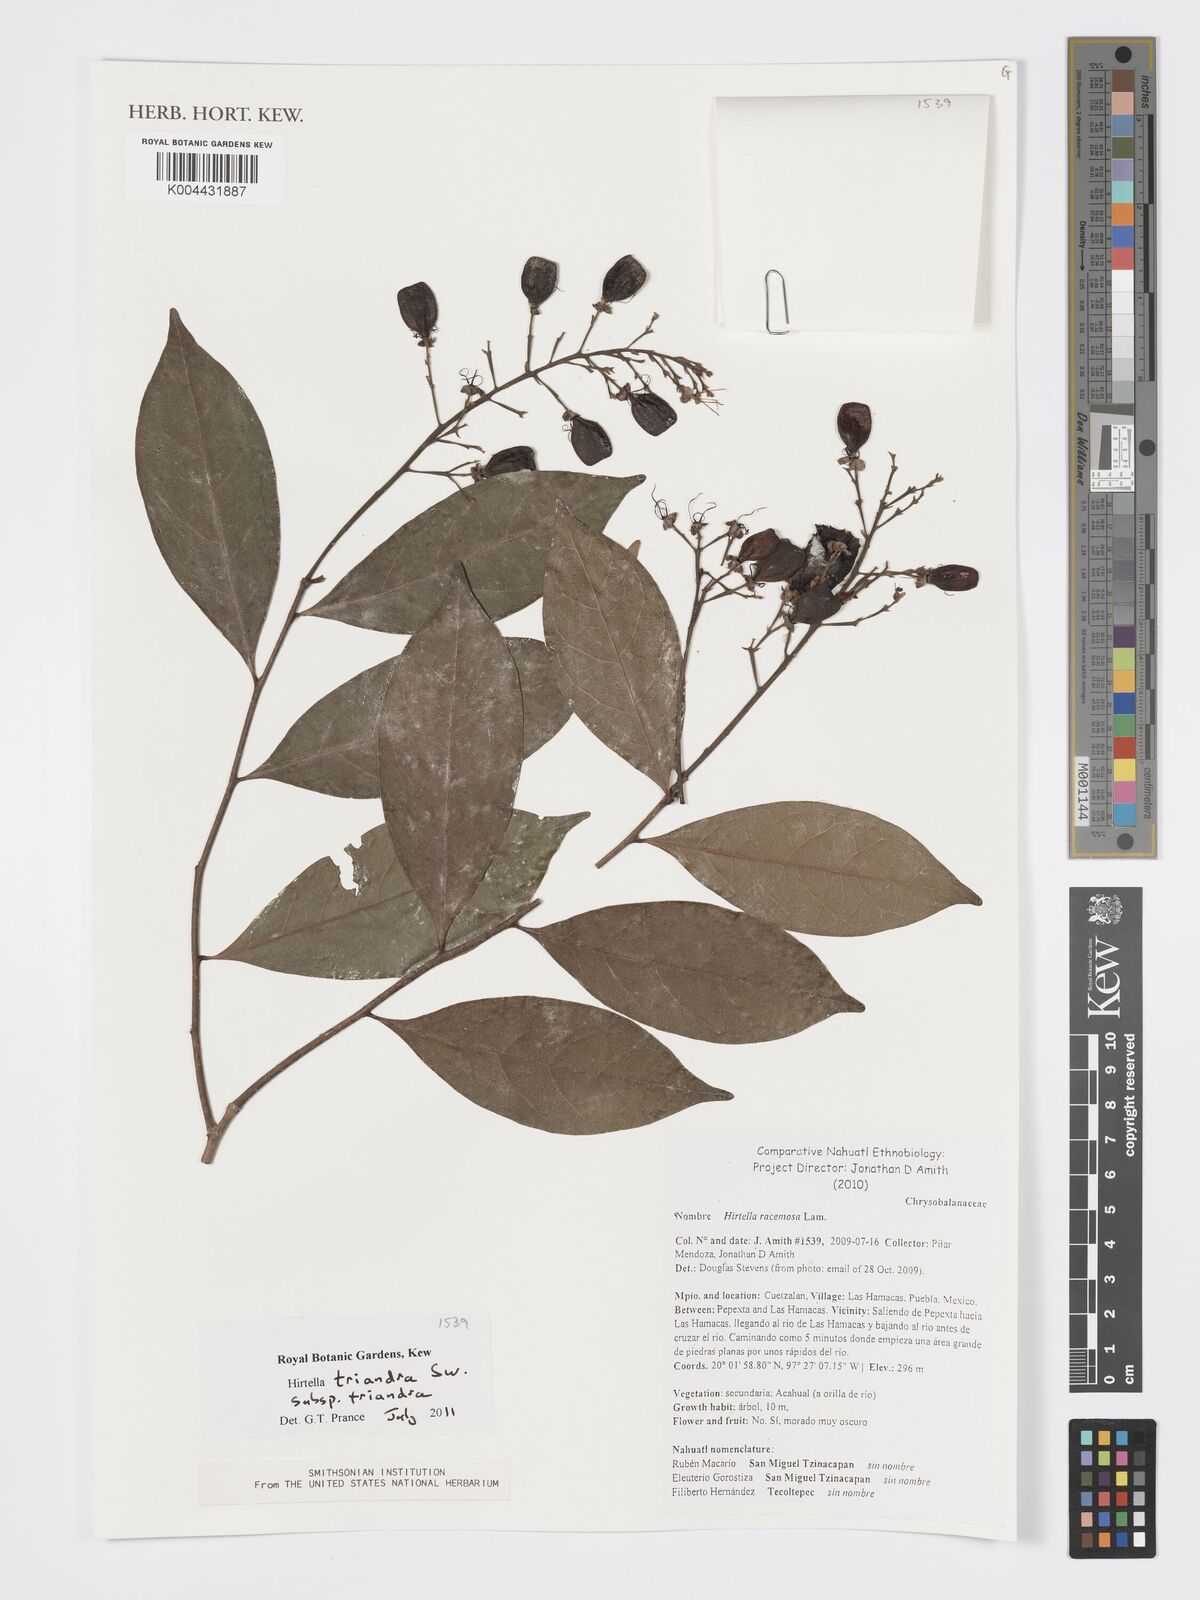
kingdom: Plantae
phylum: Tracheophyta
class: Magnoliopsida
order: Malpighiales
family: Chrysobalanaceae
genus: Hirtella
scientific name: Hirtella triandra
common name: Hairy plum
